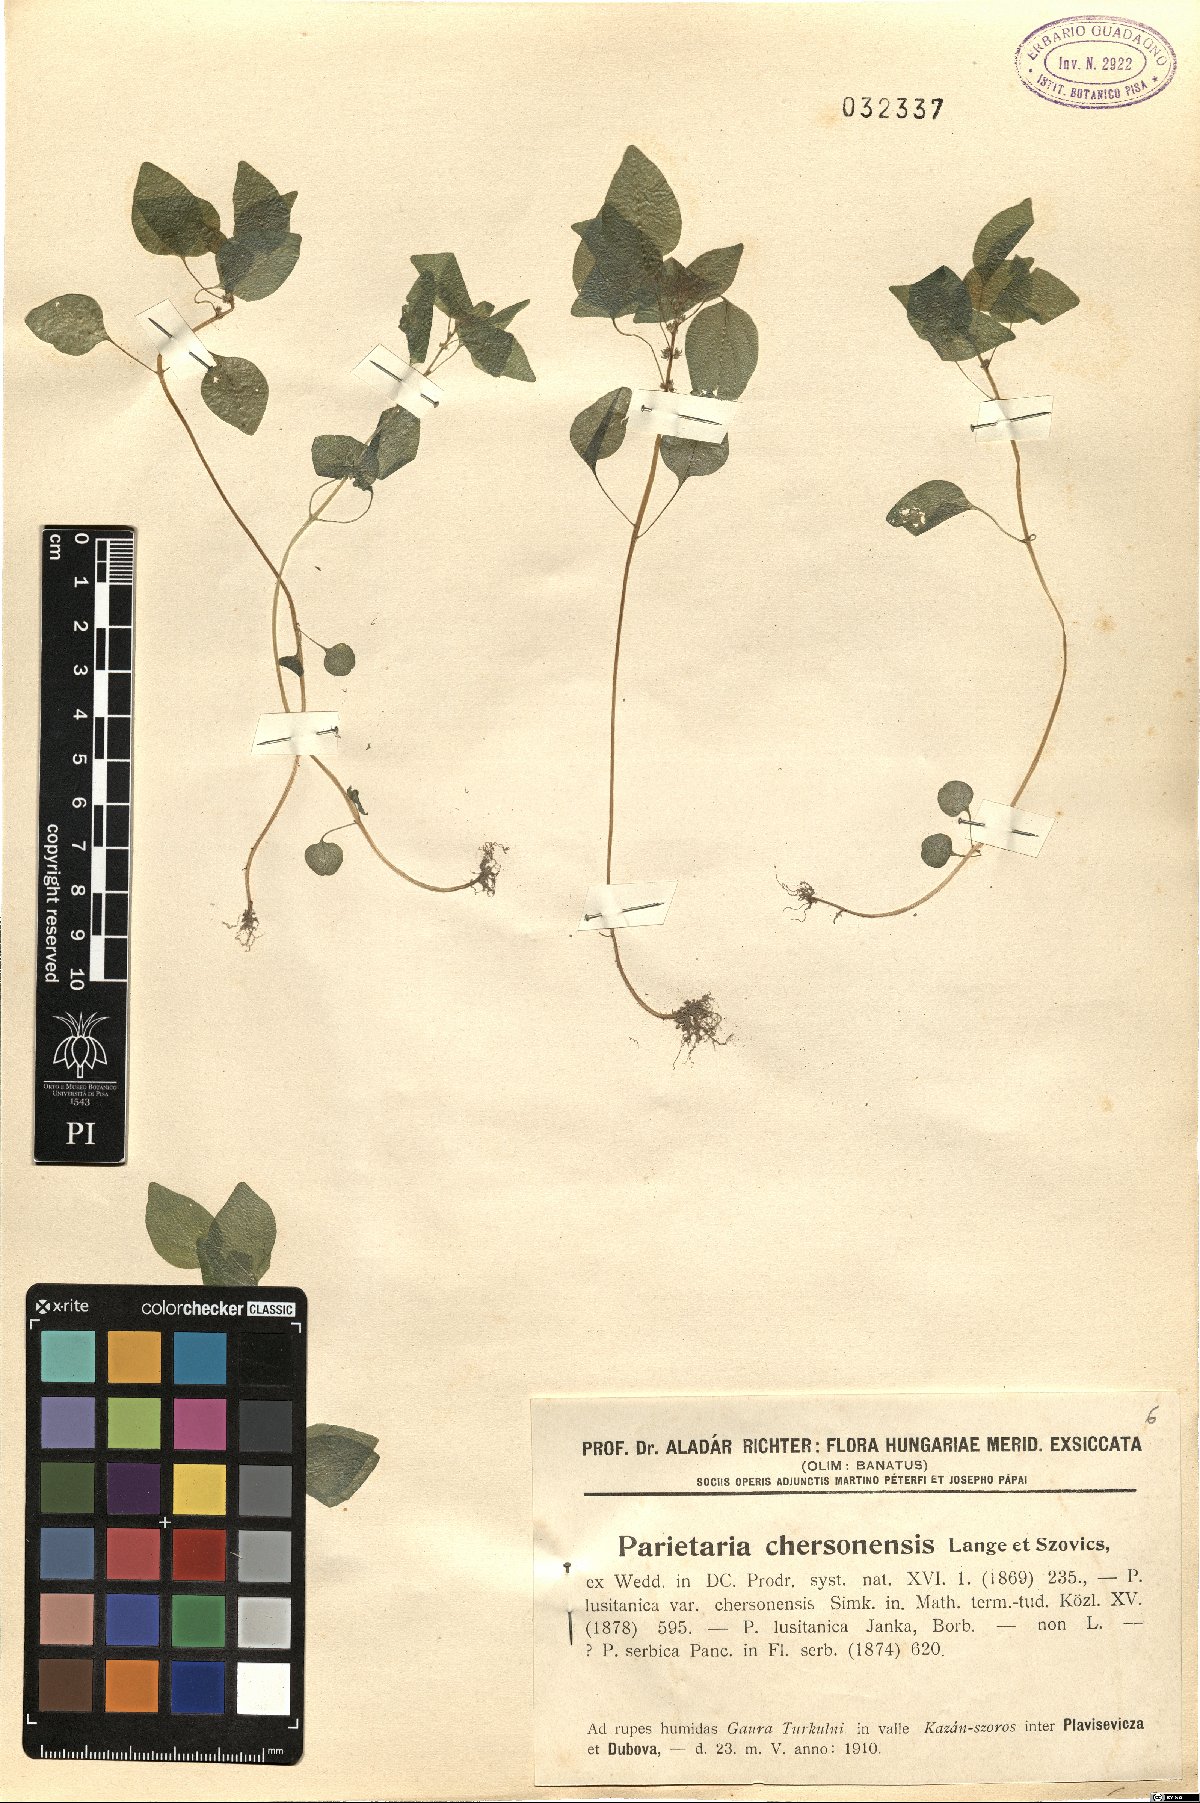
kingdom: Plantae
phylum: Tracheophyta
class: Magnoliopsida
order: Rosales
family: Urticaceae
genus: Parietaria
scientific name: Parietaria lusitanica
